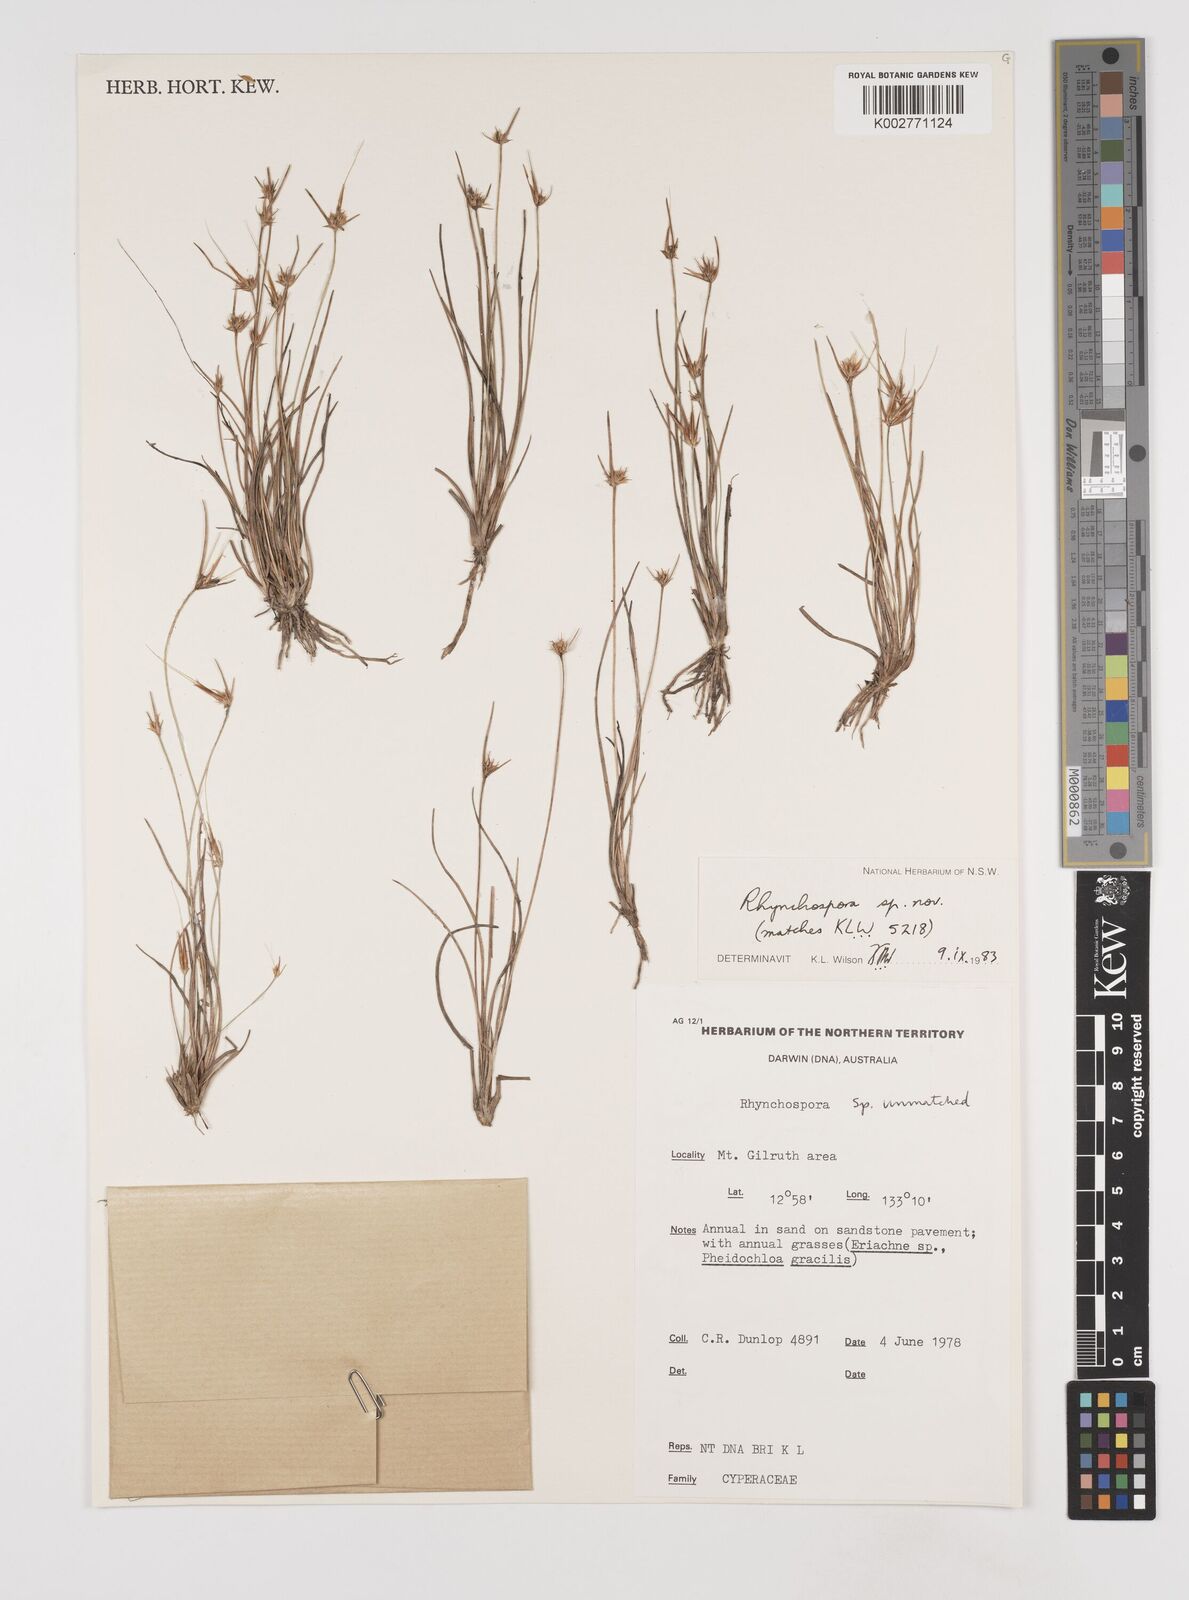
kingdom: Plantae
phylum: Tracheophyta
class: Liliopsida
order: Poales
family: Cyperaceae
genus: Rhynchospora
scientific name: Rhynchospora
